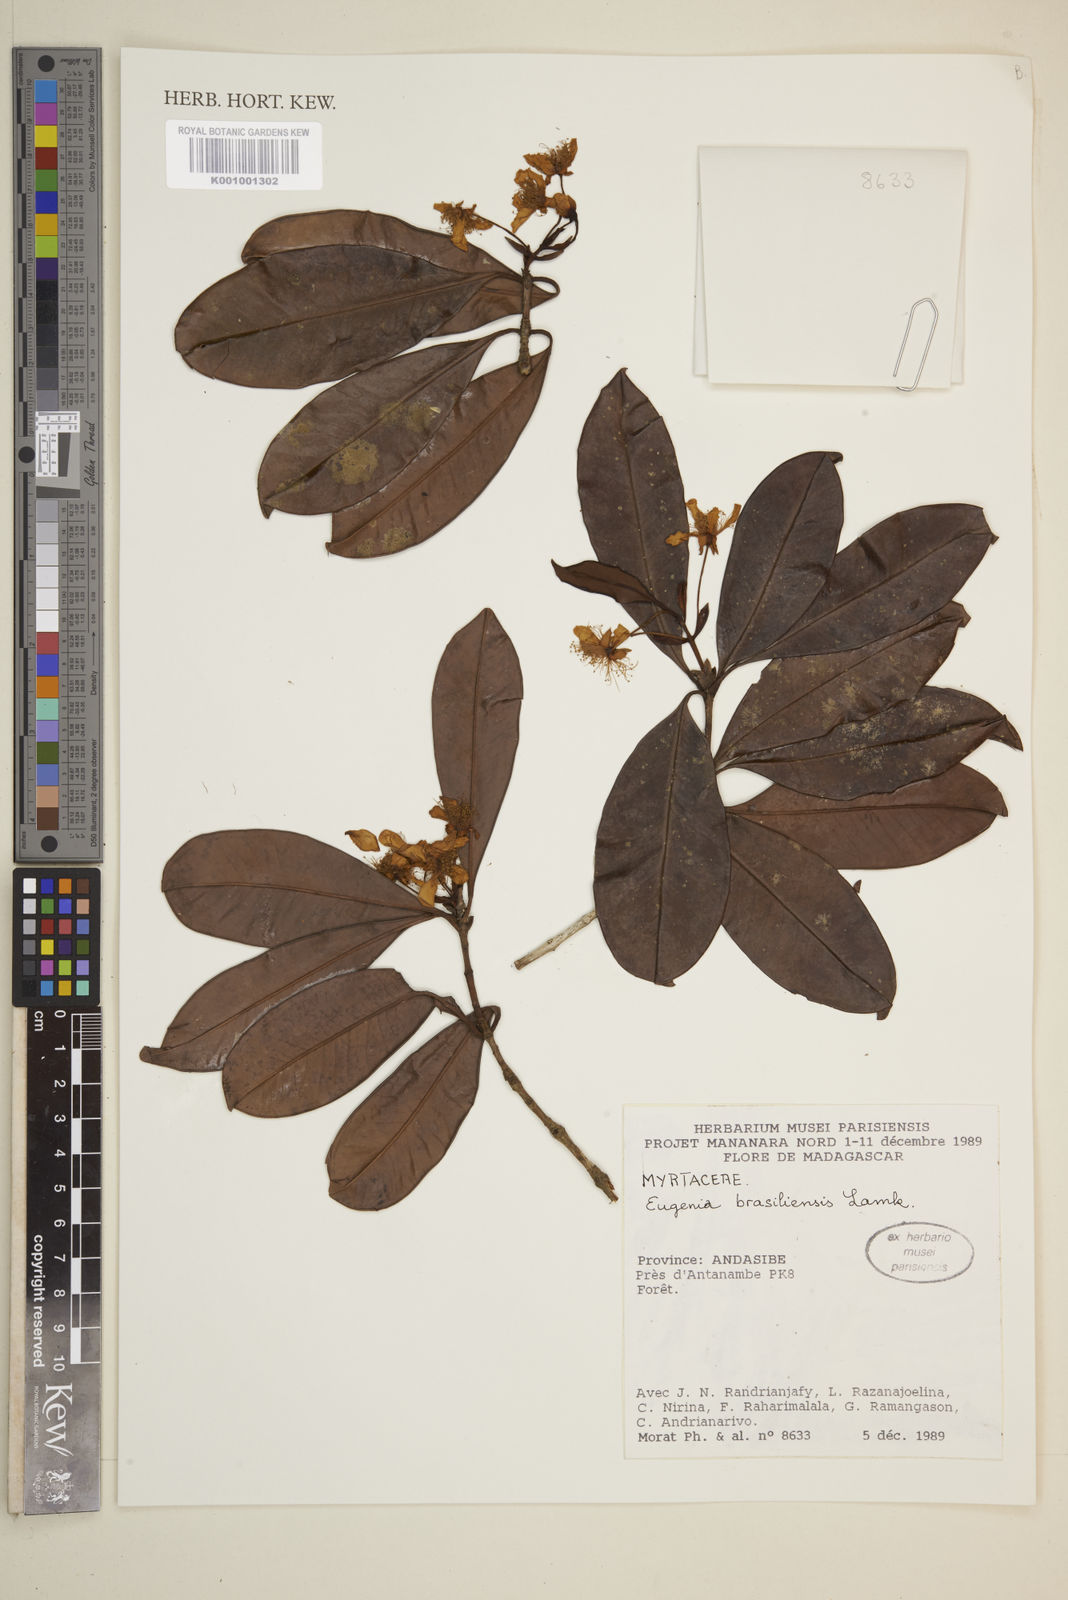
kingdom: Plantae
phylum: Tracheophyta
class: Magnoliopsida
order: Myrtales
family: Myrtaceae
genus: Eugenia
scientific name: Eugenia brasiliensis
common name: Grumichama
